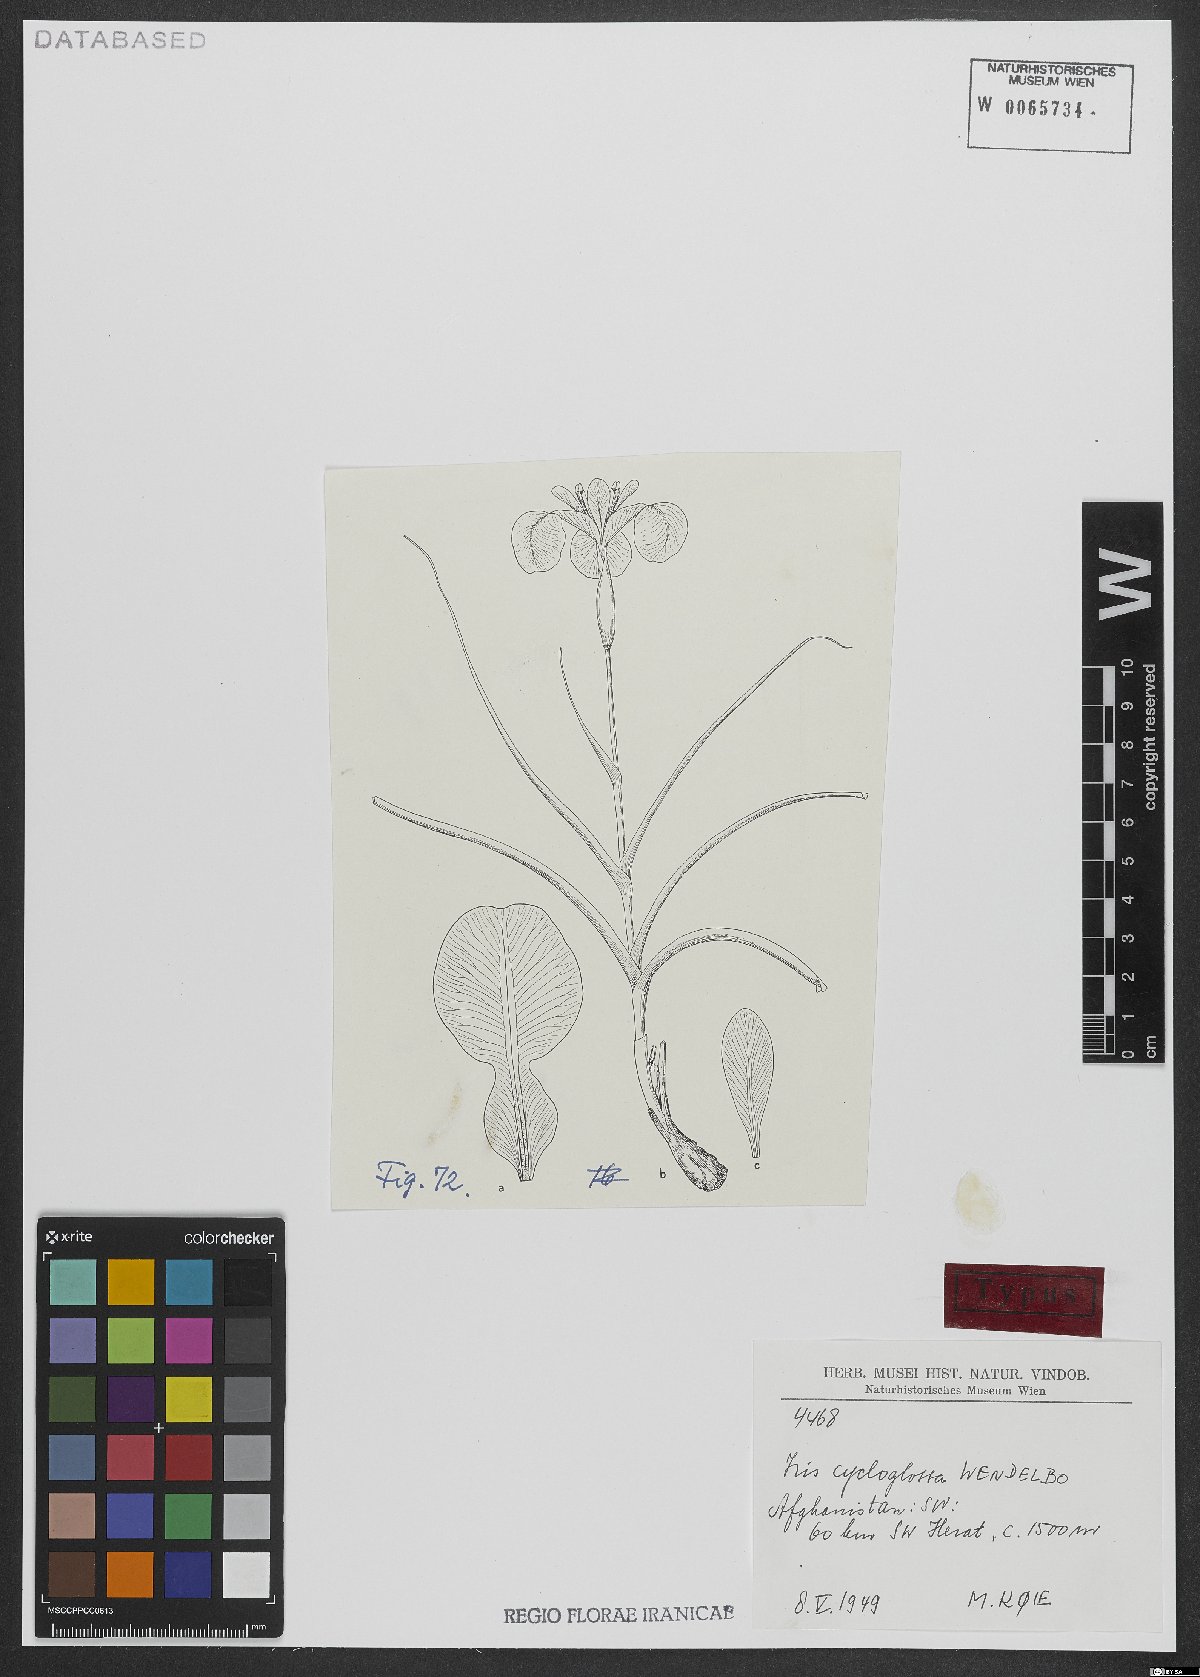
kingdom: Plantae
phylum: Tracheophyta
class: Liliopsida
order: Asparagales
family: Iridaceae
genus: Iris
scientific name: Iris cycloglossa
